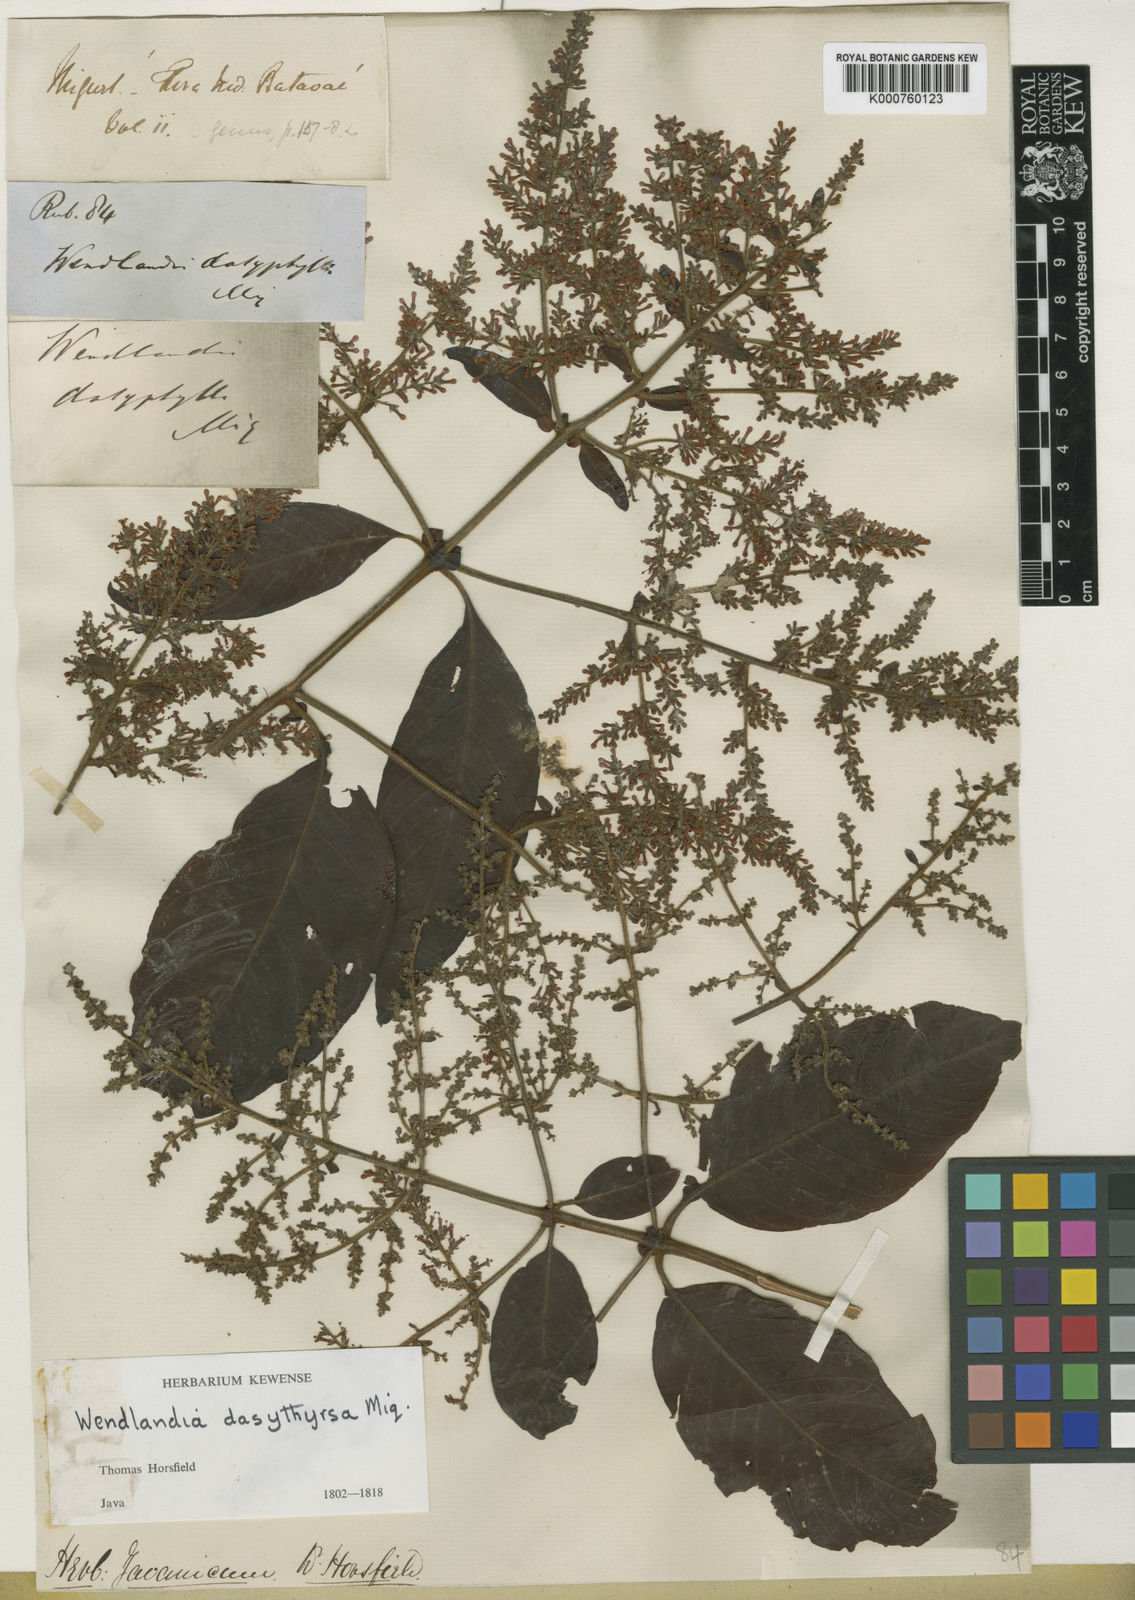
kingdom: Plantae
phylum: Tracheophyta
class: Magnoliopsida
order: Gentianales
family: Rubiaceae
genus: Wendlandia
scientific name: Wendlandia densiflora
